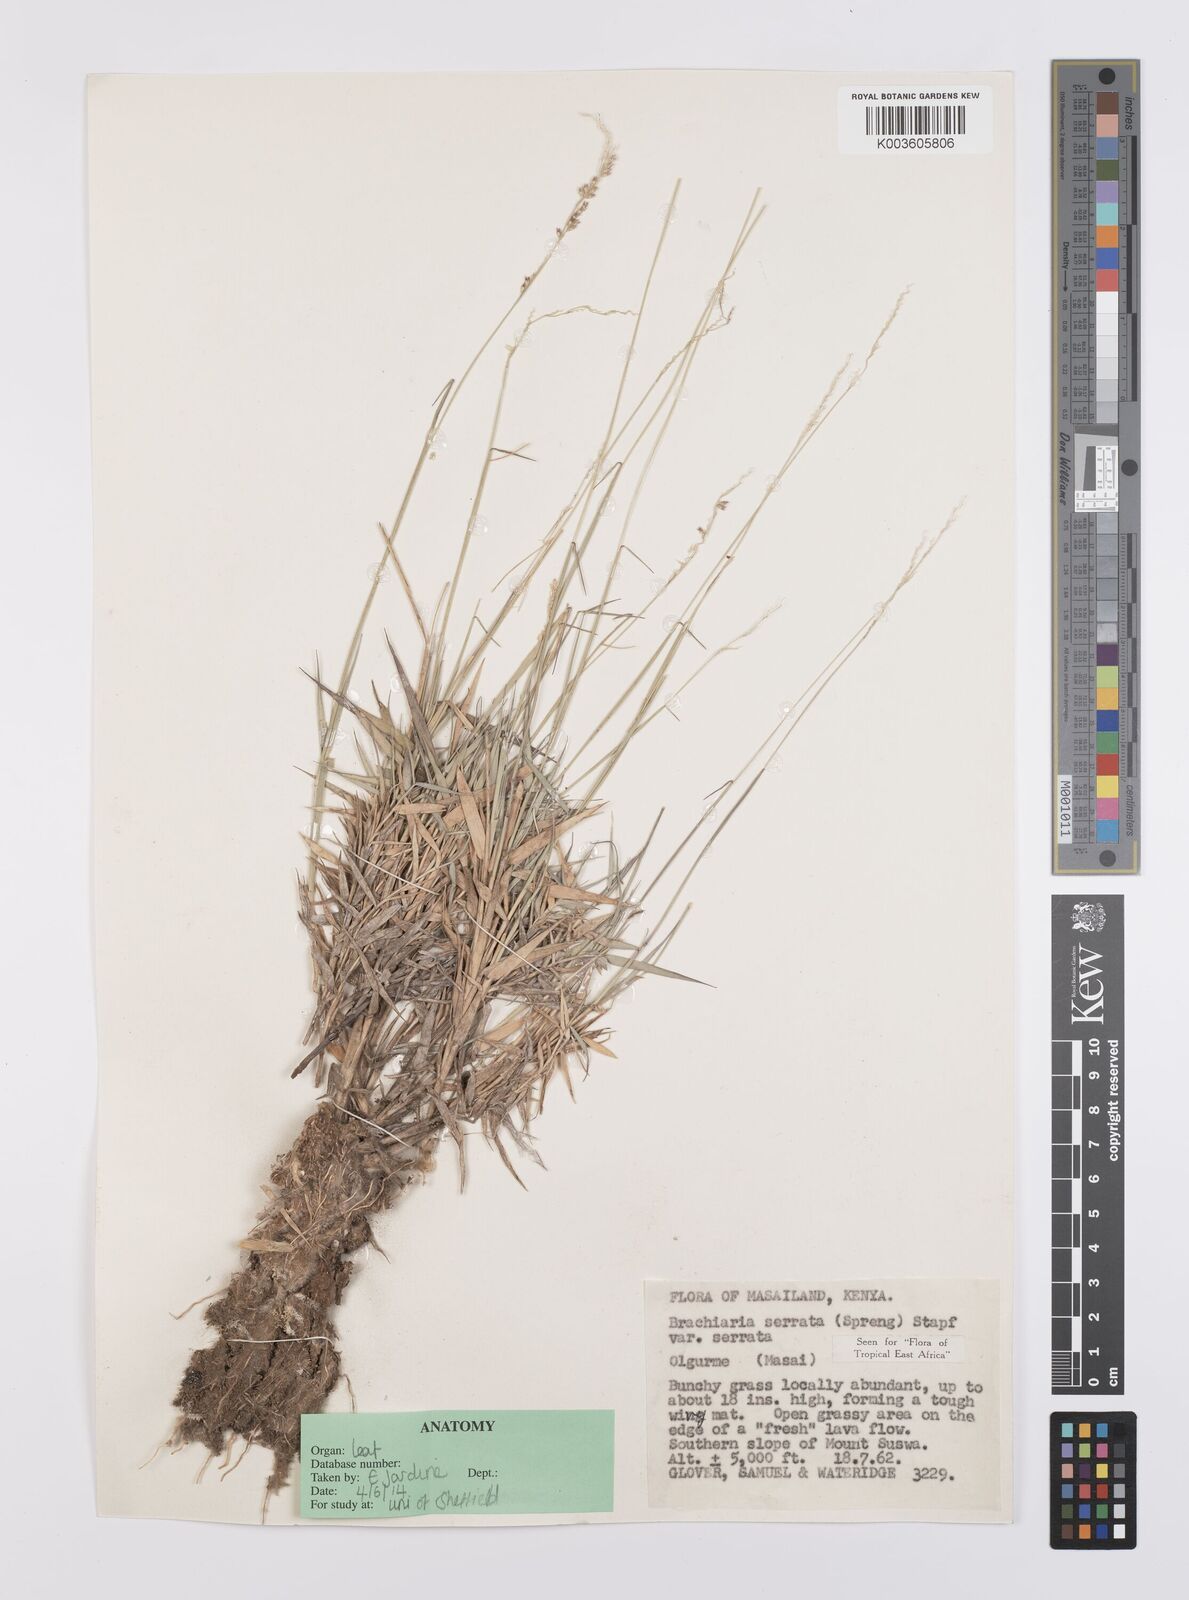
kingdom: Plantae
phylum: Tracheophyta
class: Liliopsida
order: Poales
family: Poaceae
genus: Urochloa
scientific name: Urochloa serrata
